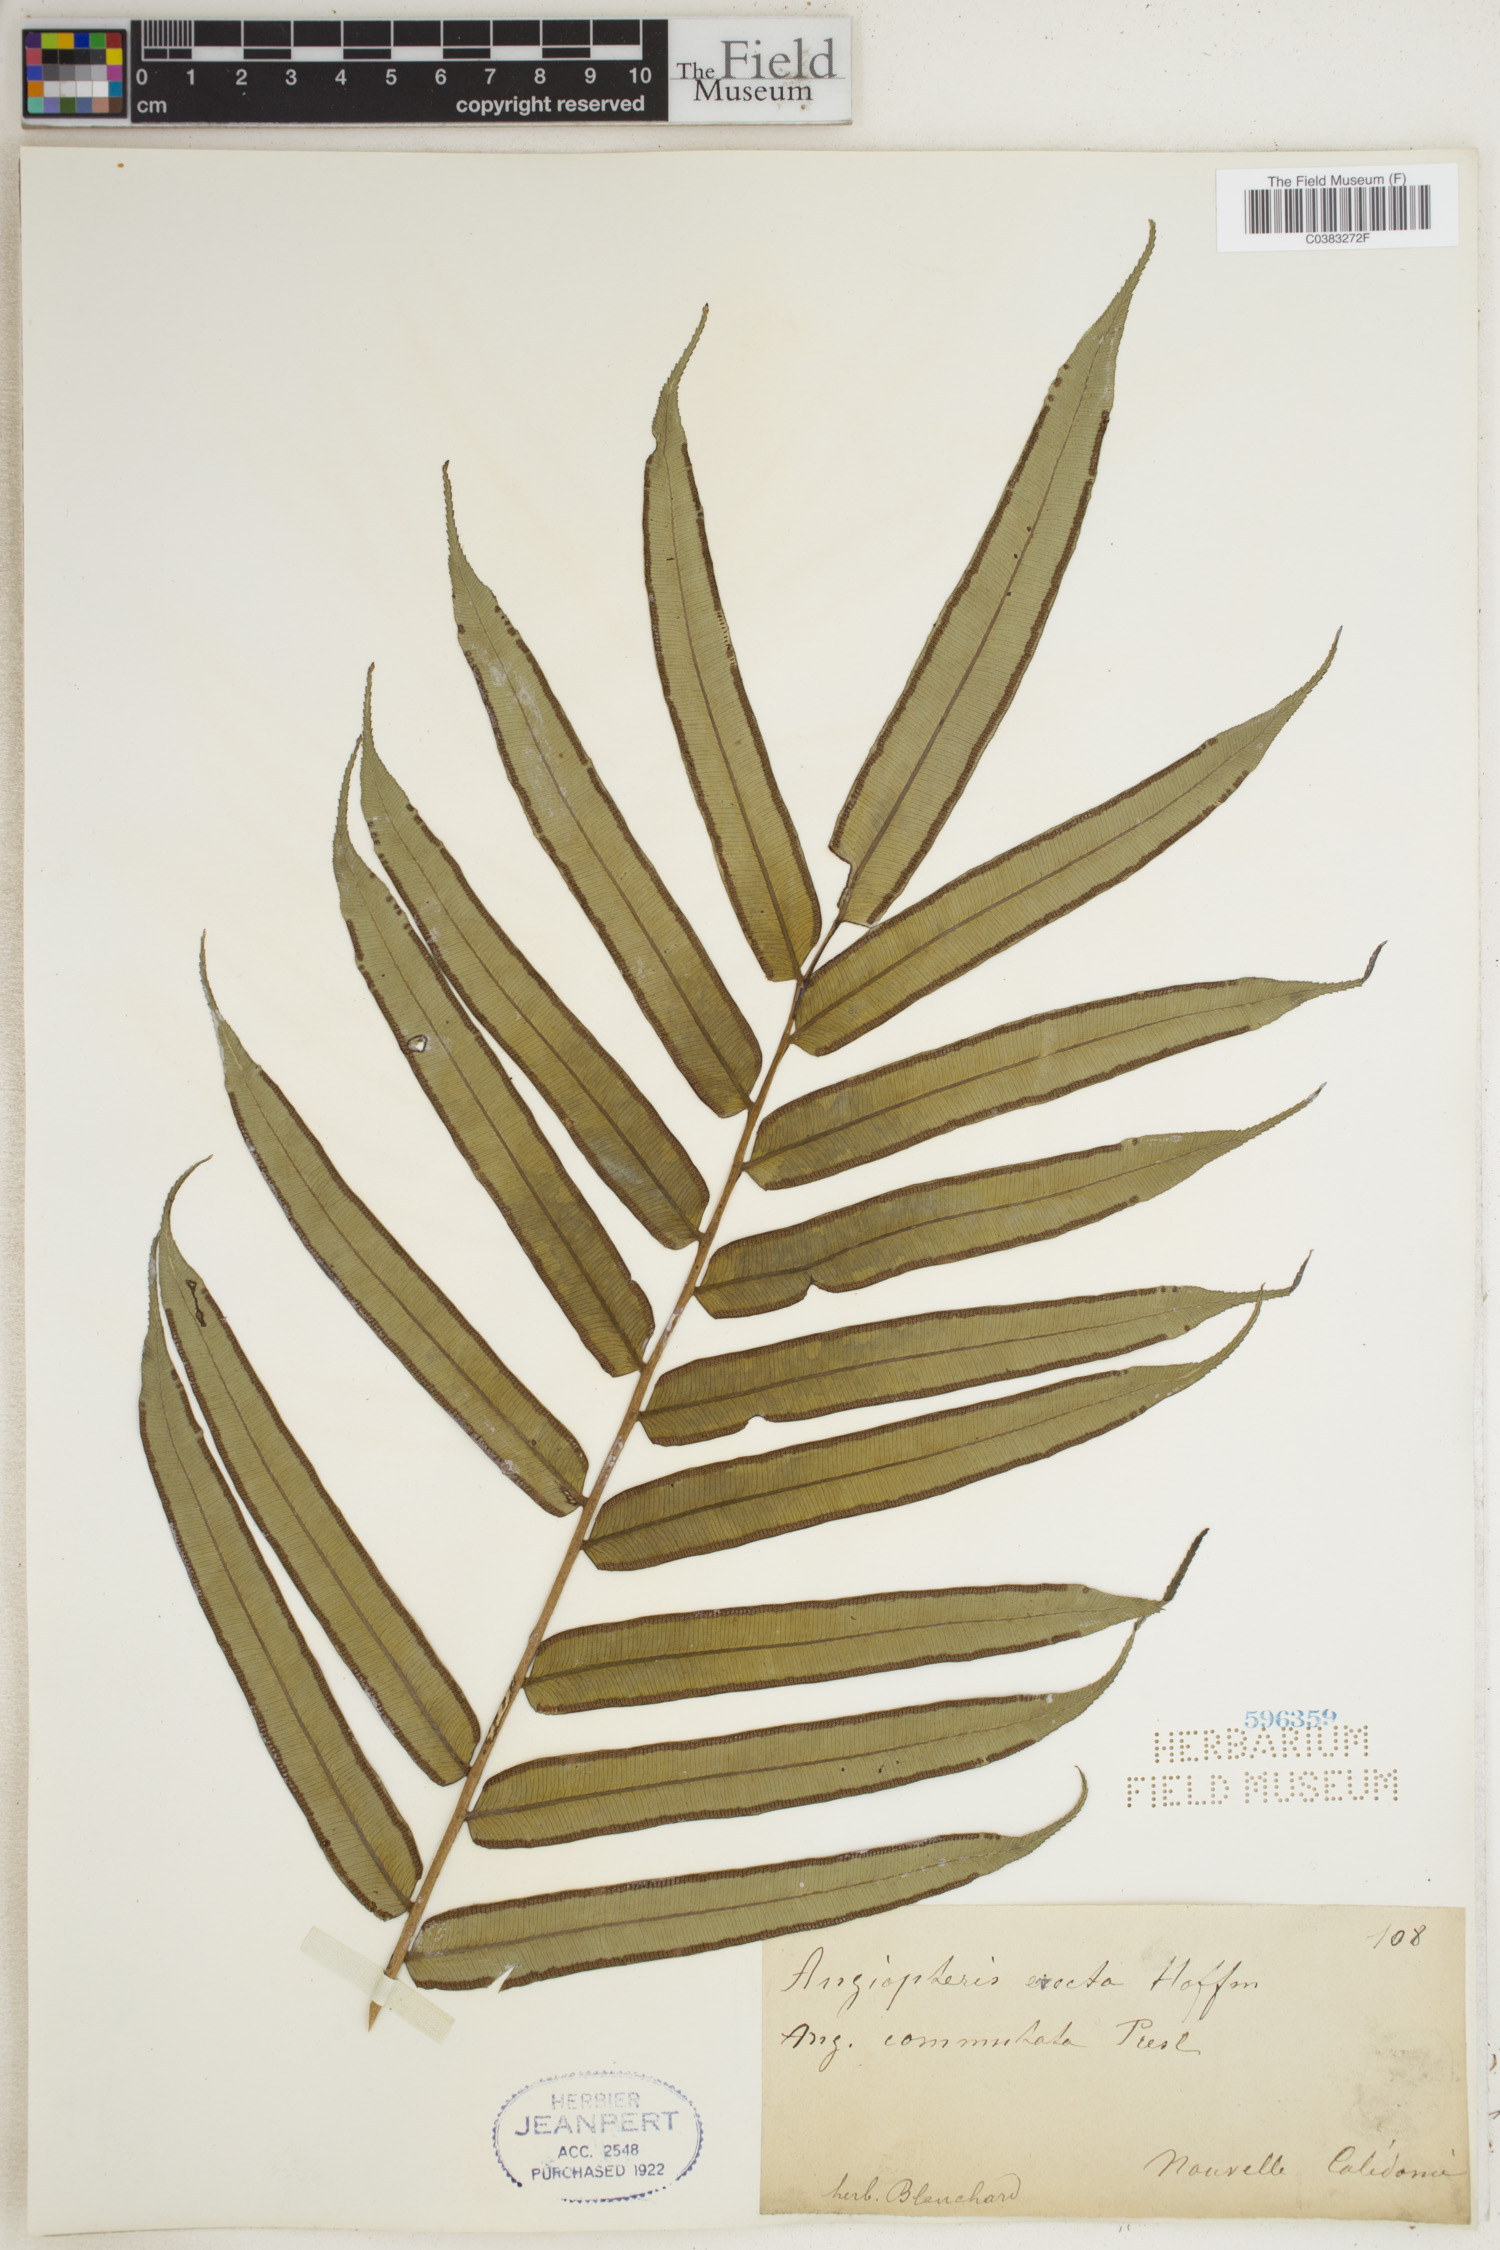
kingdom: Plantae
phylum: Tracheophyta
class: Polypodiopsida
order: Marattiales
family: Marattiaceae
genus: Angiopteris
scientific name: Angiopteris evecta
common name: Mule's-foot fern
